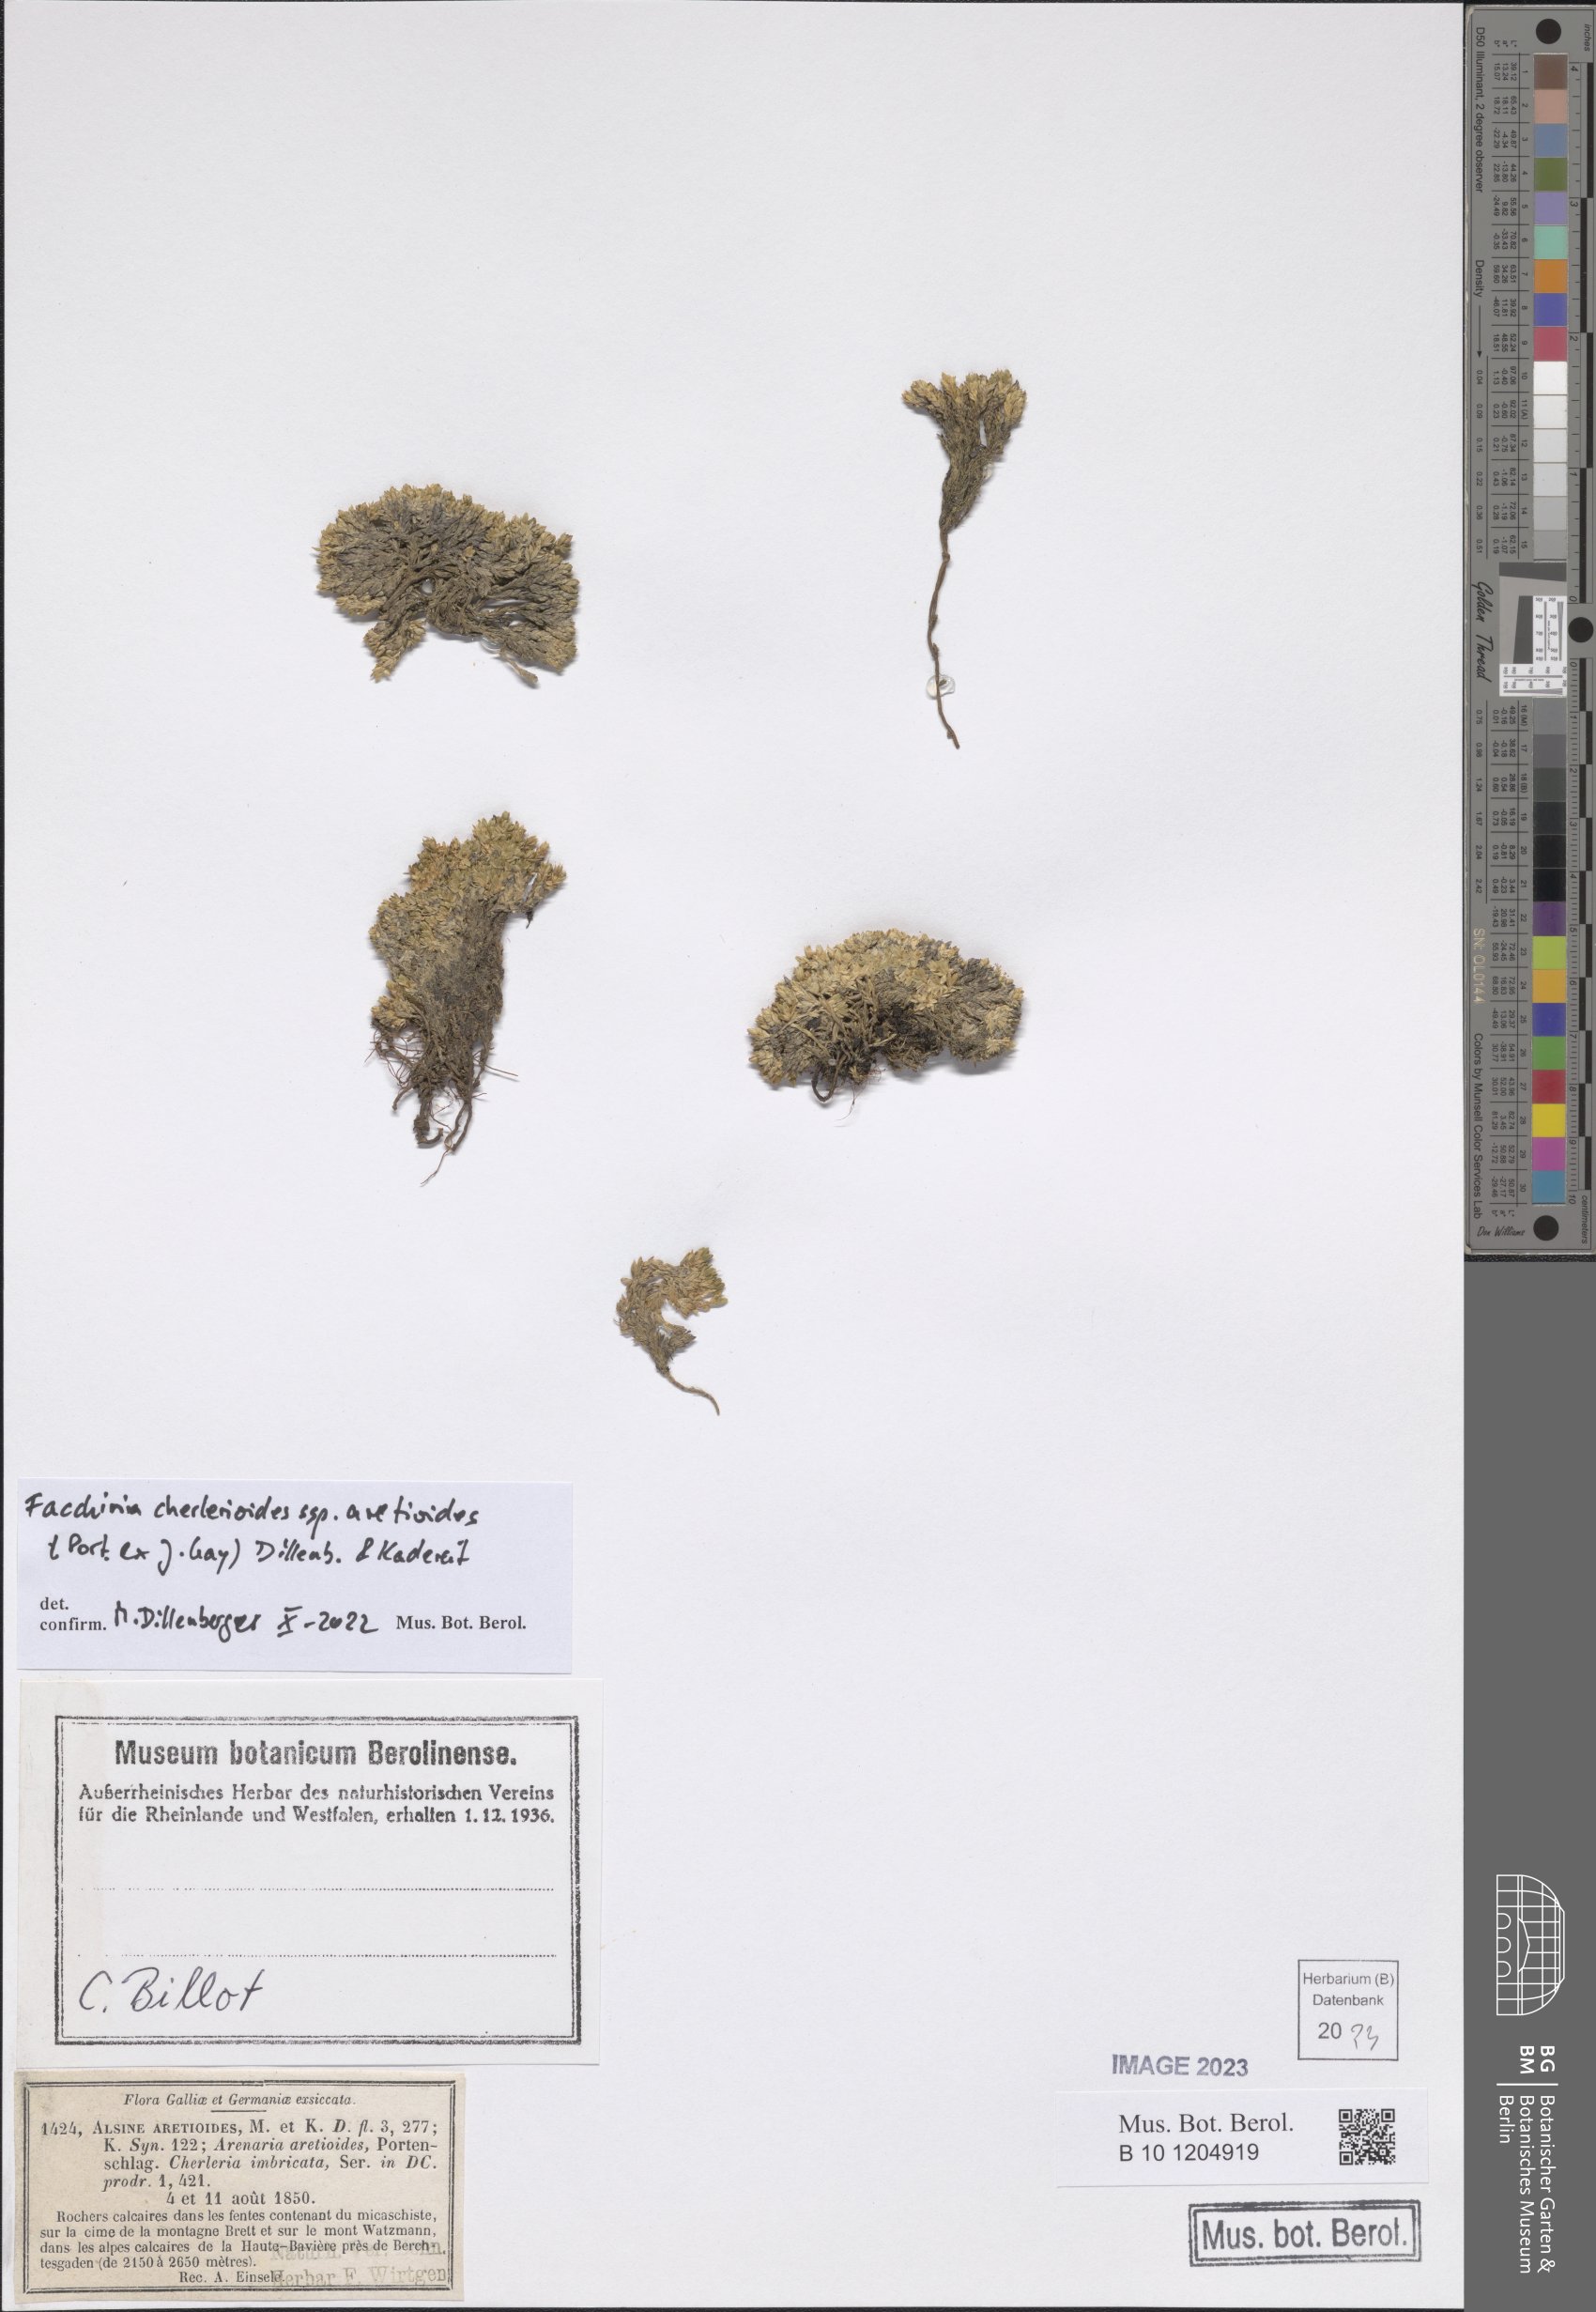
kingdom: Plantae
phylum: Tracheophyta
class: Magnoliopsida
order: Caryophyllales
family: Caryophyllaceae
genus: Facchinia
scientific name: Facchinia cherlerioides
